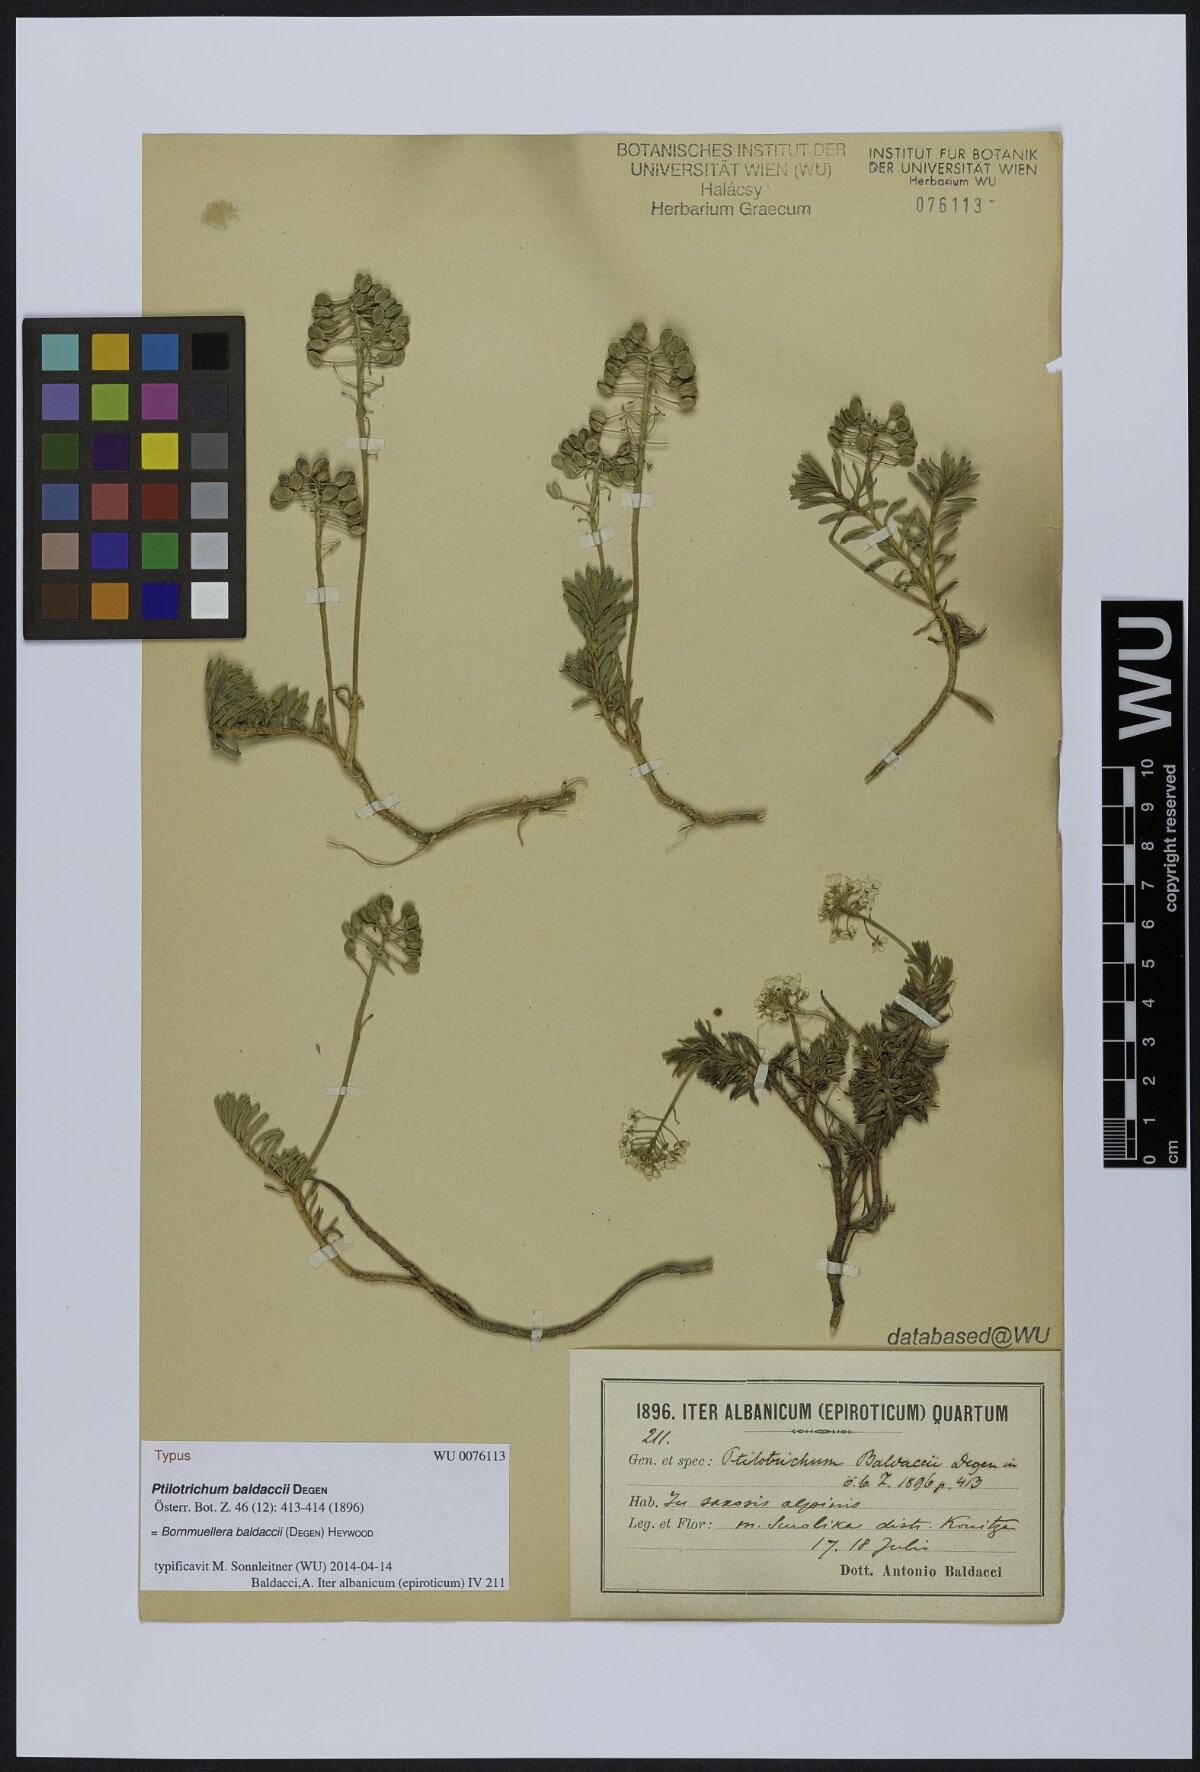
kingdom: Plantae
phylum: Tracheophyta
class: Magnoliopsida
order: Brassicales
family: Brassicaceae
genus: Bornmuellera
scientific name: Bornmuellera baldaccii
